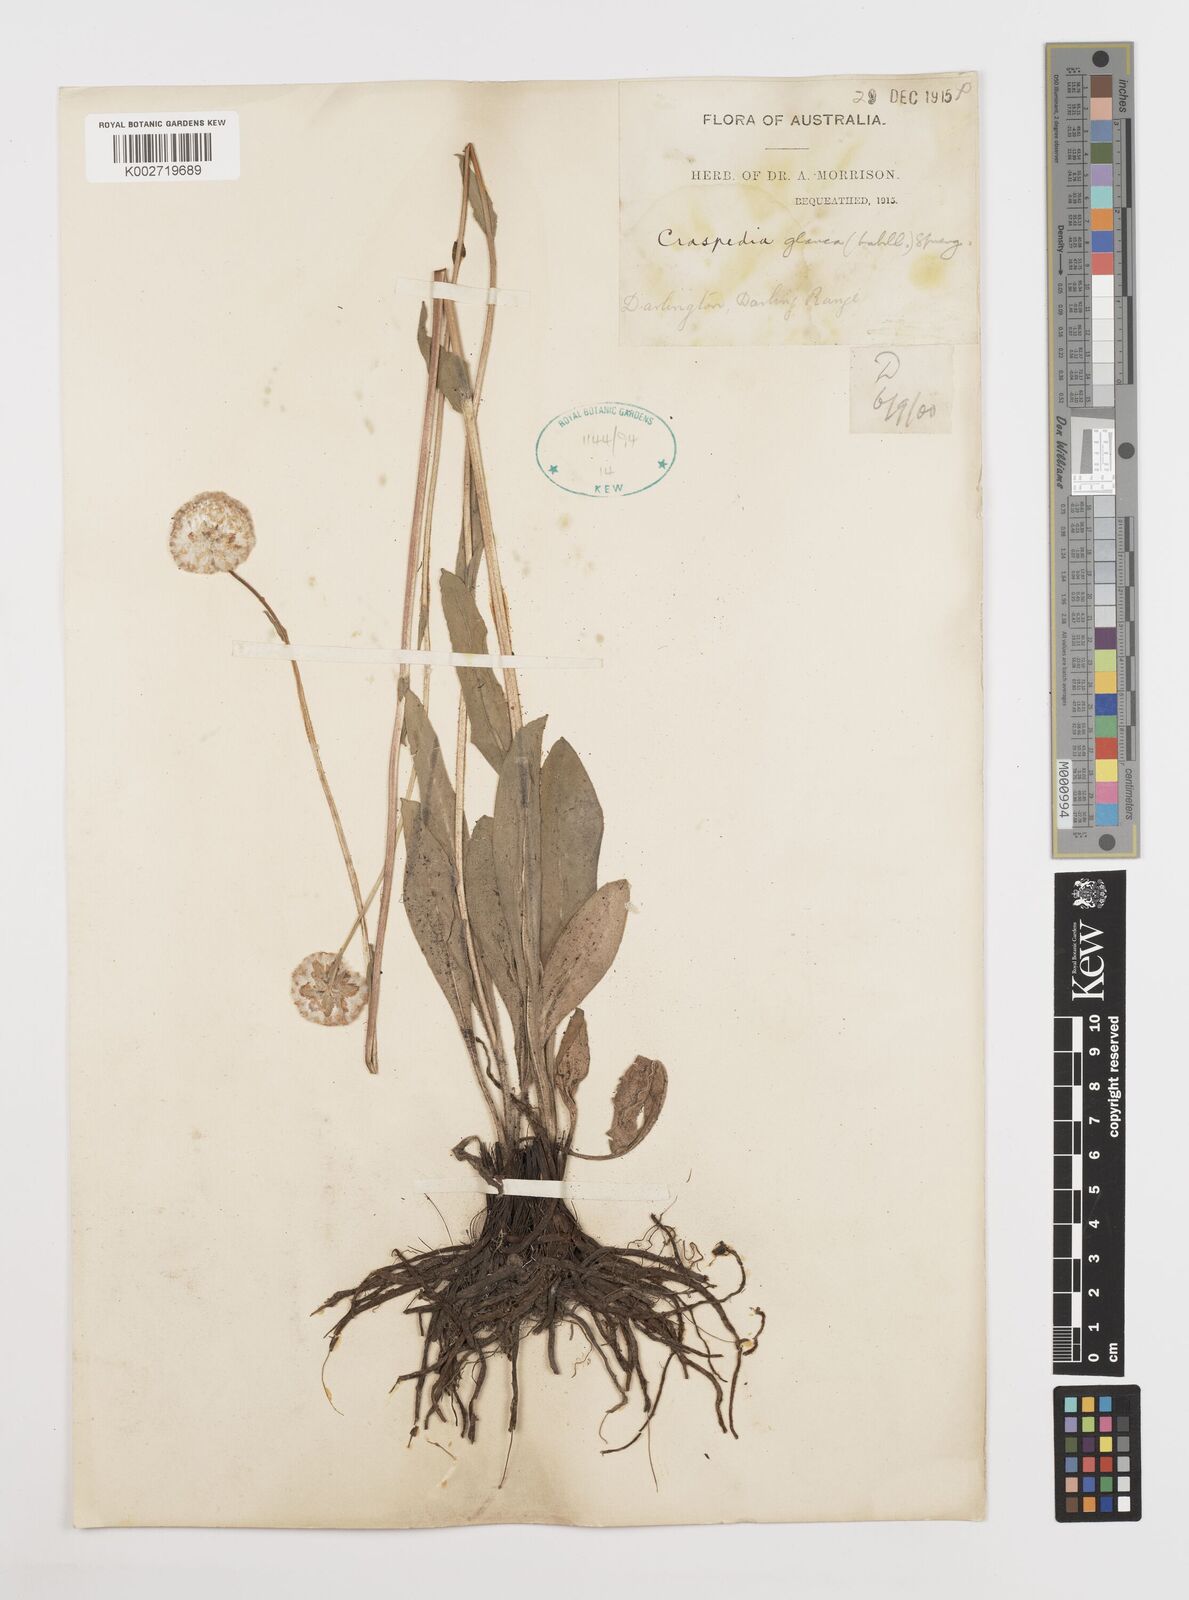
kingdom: Plantae
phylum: Tracheophyta
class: Magnoliopsida
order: Asterales
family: Asteraceae
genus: Craspedia
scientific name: Craspedia glauca
